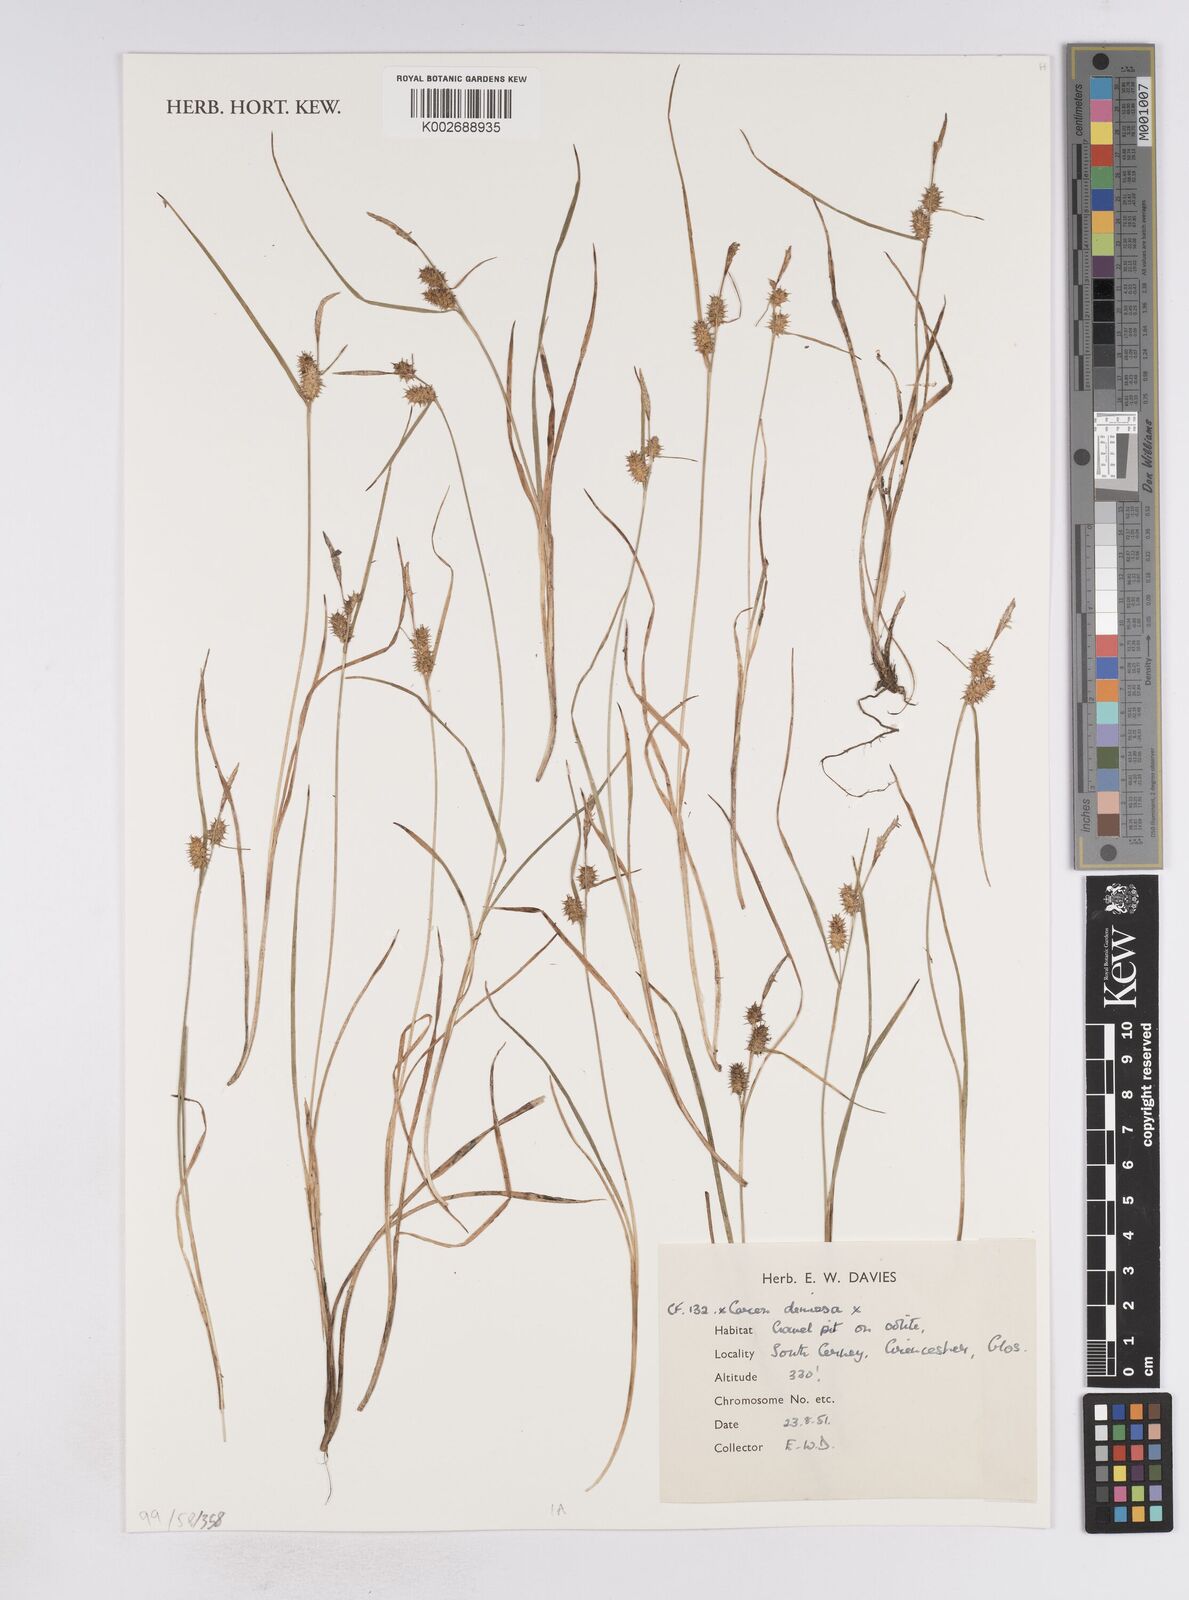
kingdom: Plantae
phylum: Tracheophyta
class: Liliopsida
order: Poales
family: Cyperaceae
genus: Carex
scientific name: Carex demissa
